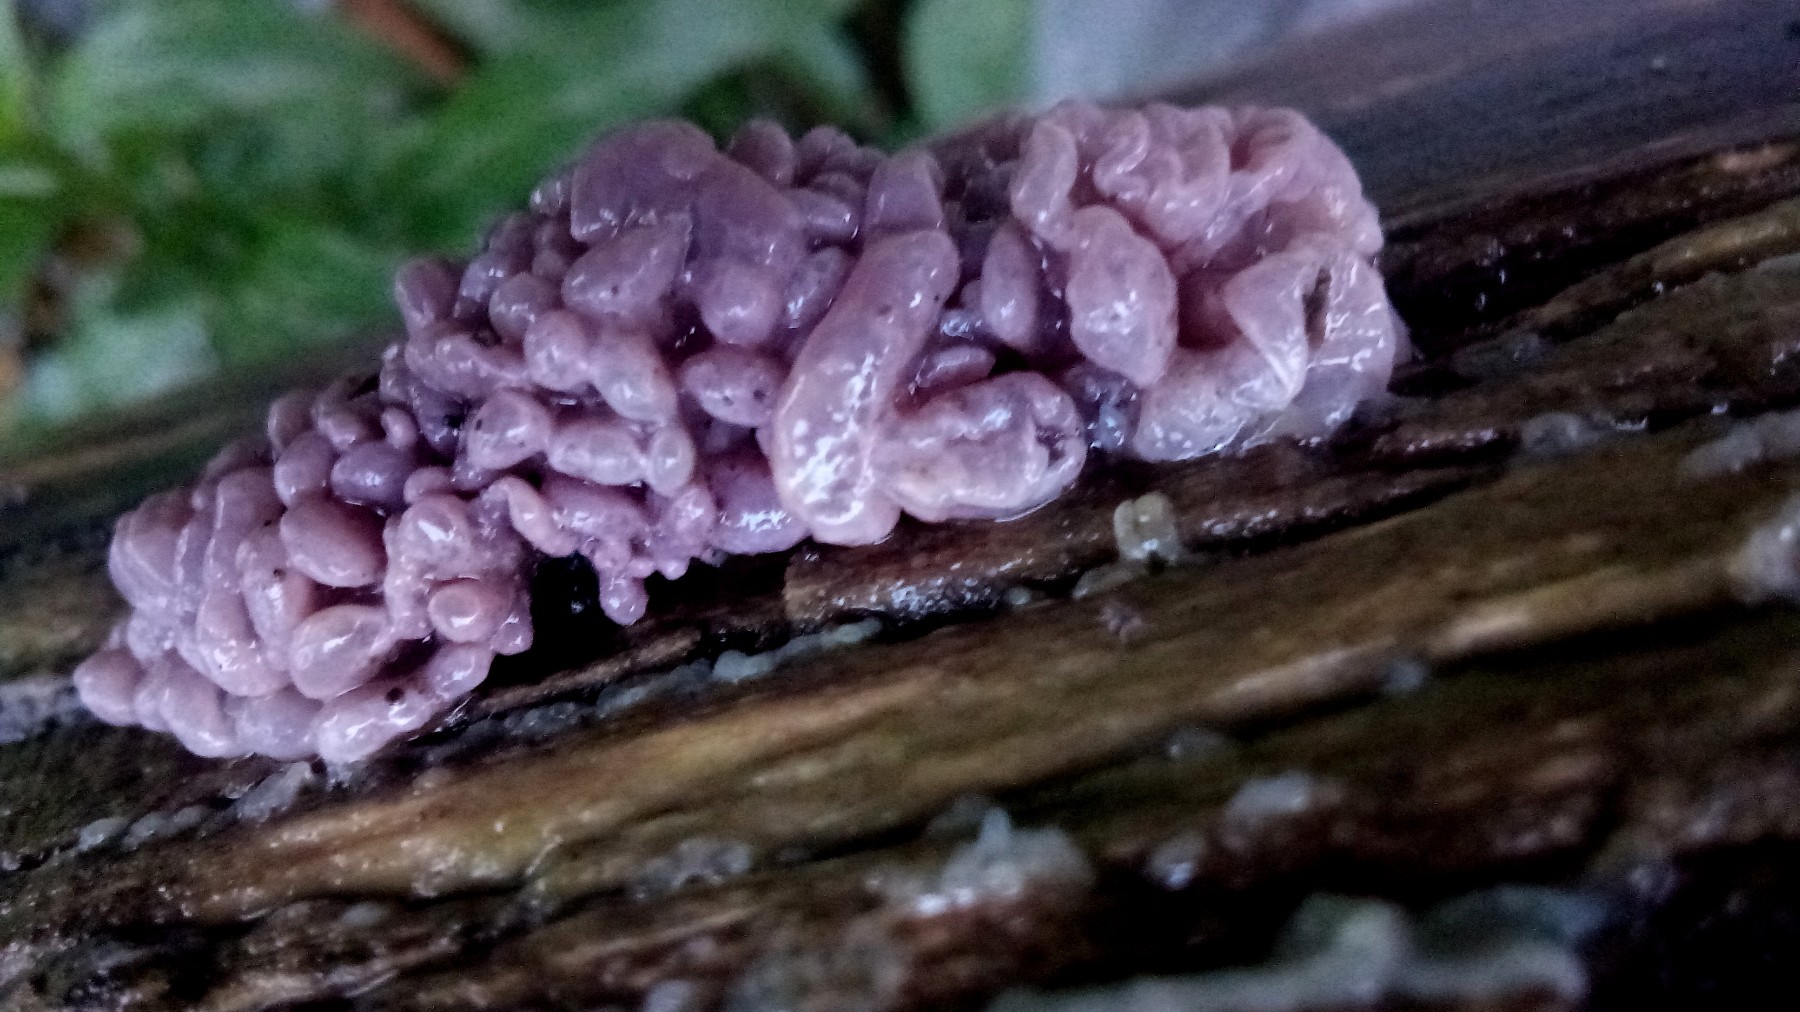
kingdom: Fungi
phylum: Ascomycota
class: Leotiomycetes
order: Helotiales
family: Gelatinodiscaceae
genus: Ascocoryne
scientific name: Ascocoryne sarcoides
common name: rødlilla sejskive
